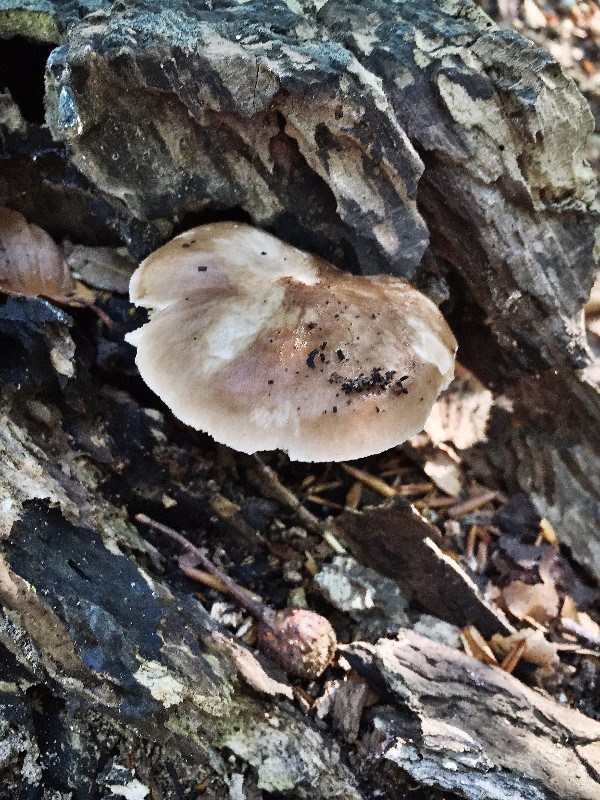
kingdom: Fungi
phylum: Basidiomycota
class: Agaricomycetes
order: Agaricales
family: Pluteaceae
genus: Pluteus
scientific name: Pluteus cervinus
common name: sodfarvet skærmhat
